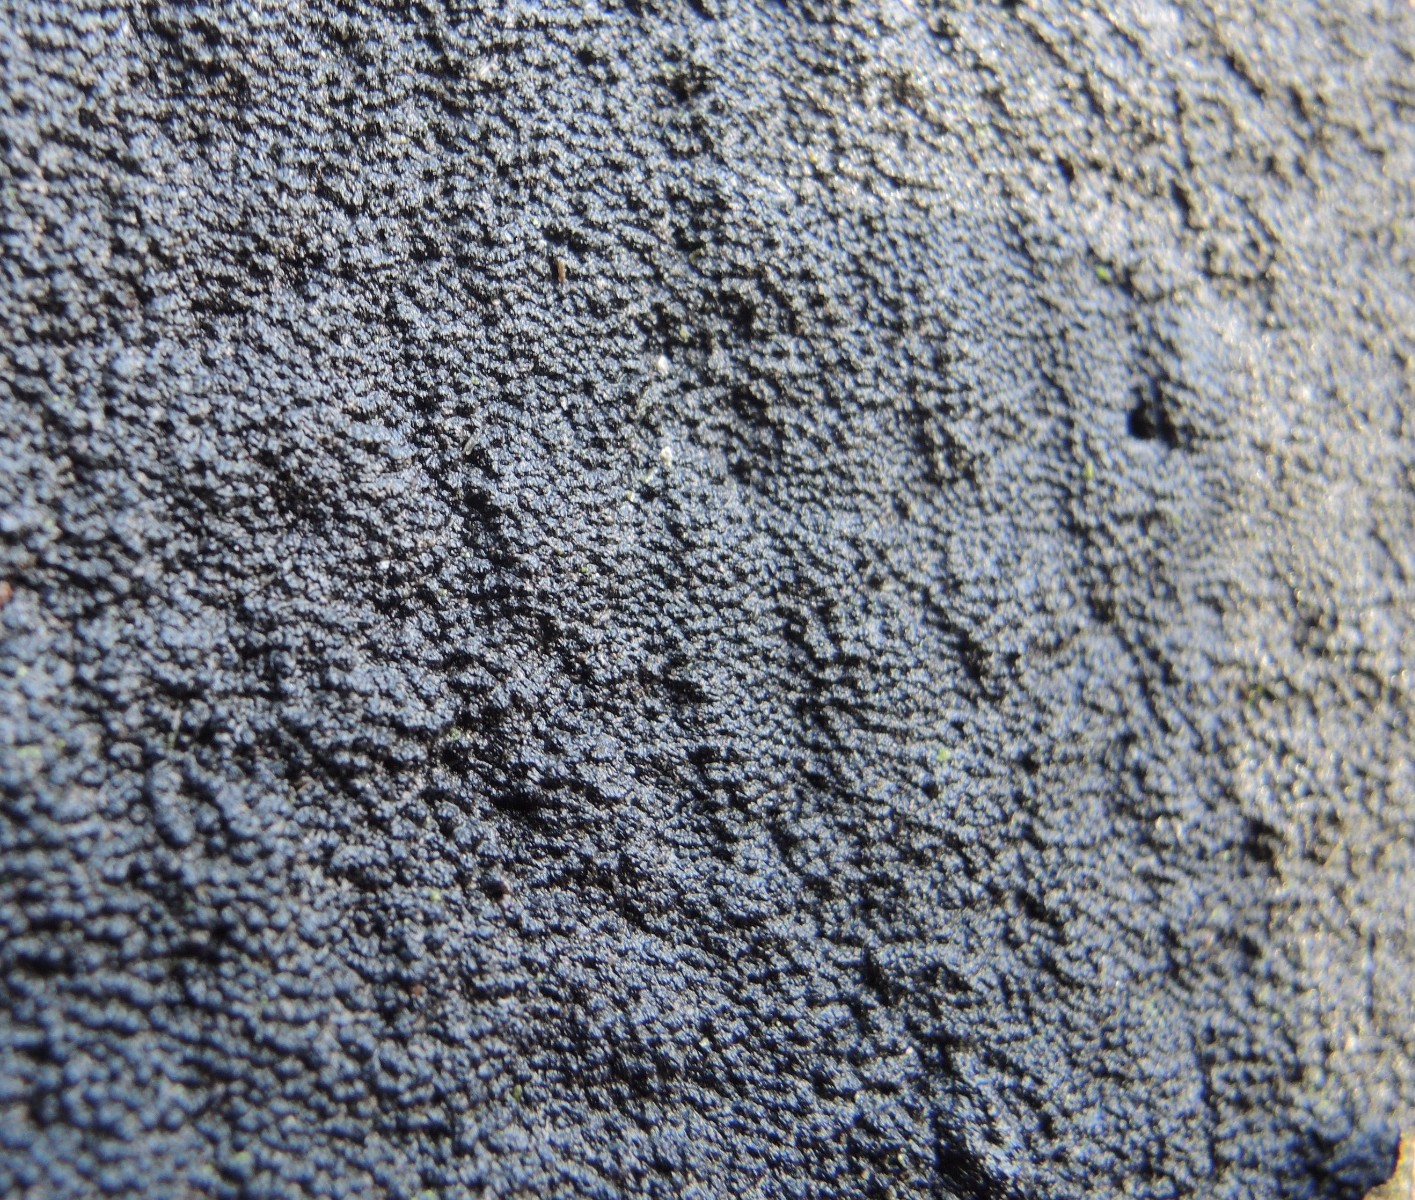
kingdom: Fungi
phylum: Ascomycota
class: Sordariomycetes
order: Xylariales
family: Diatrypaceae
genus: Eutypa
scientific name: Eutypa spinosa
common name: grov kulskorpe
